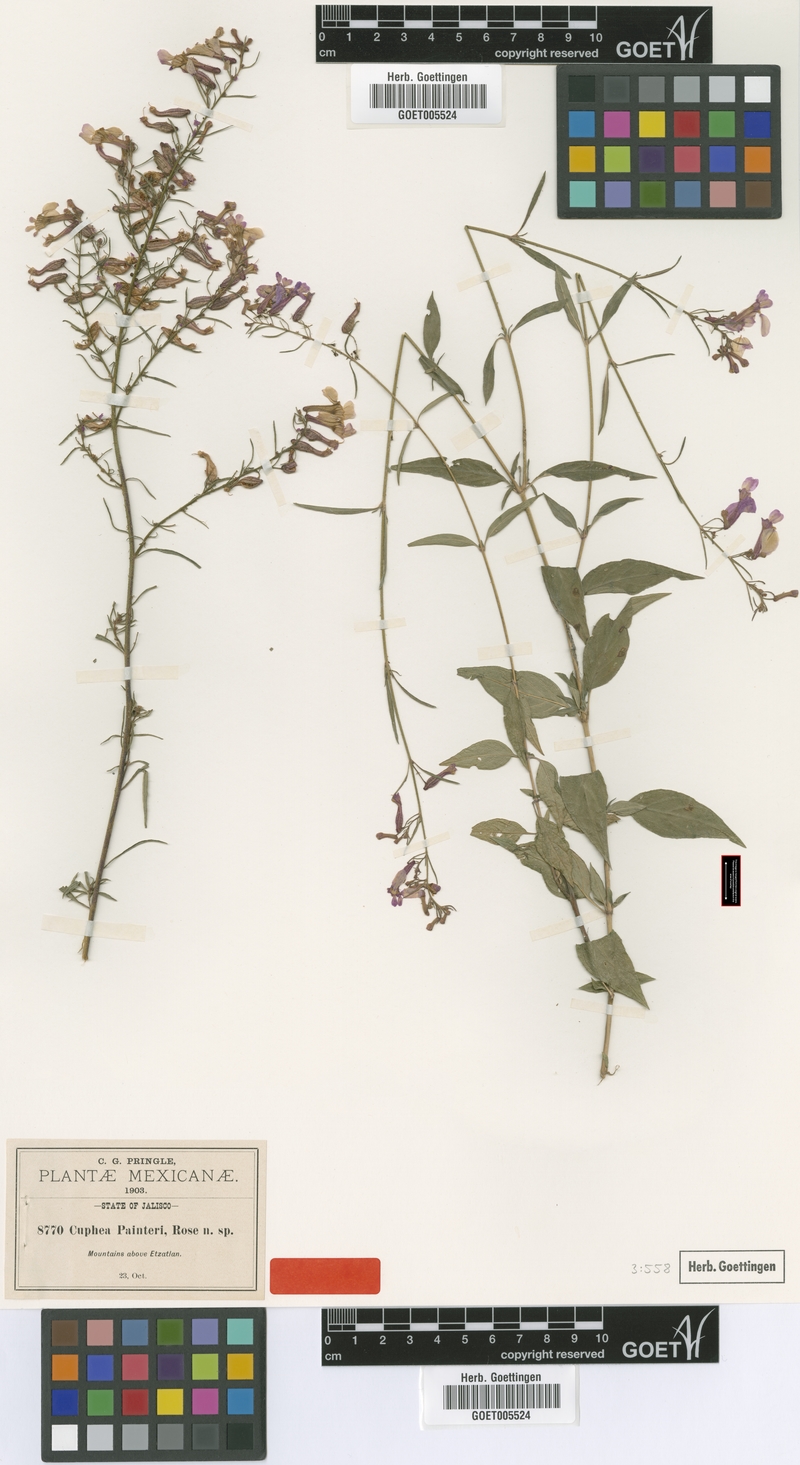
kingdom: Plantae
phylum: Tracheophyta
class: Magnoliopsida
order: Myrtales
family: Lythraceae
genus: Cuphea
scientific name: Cuphea painteri
